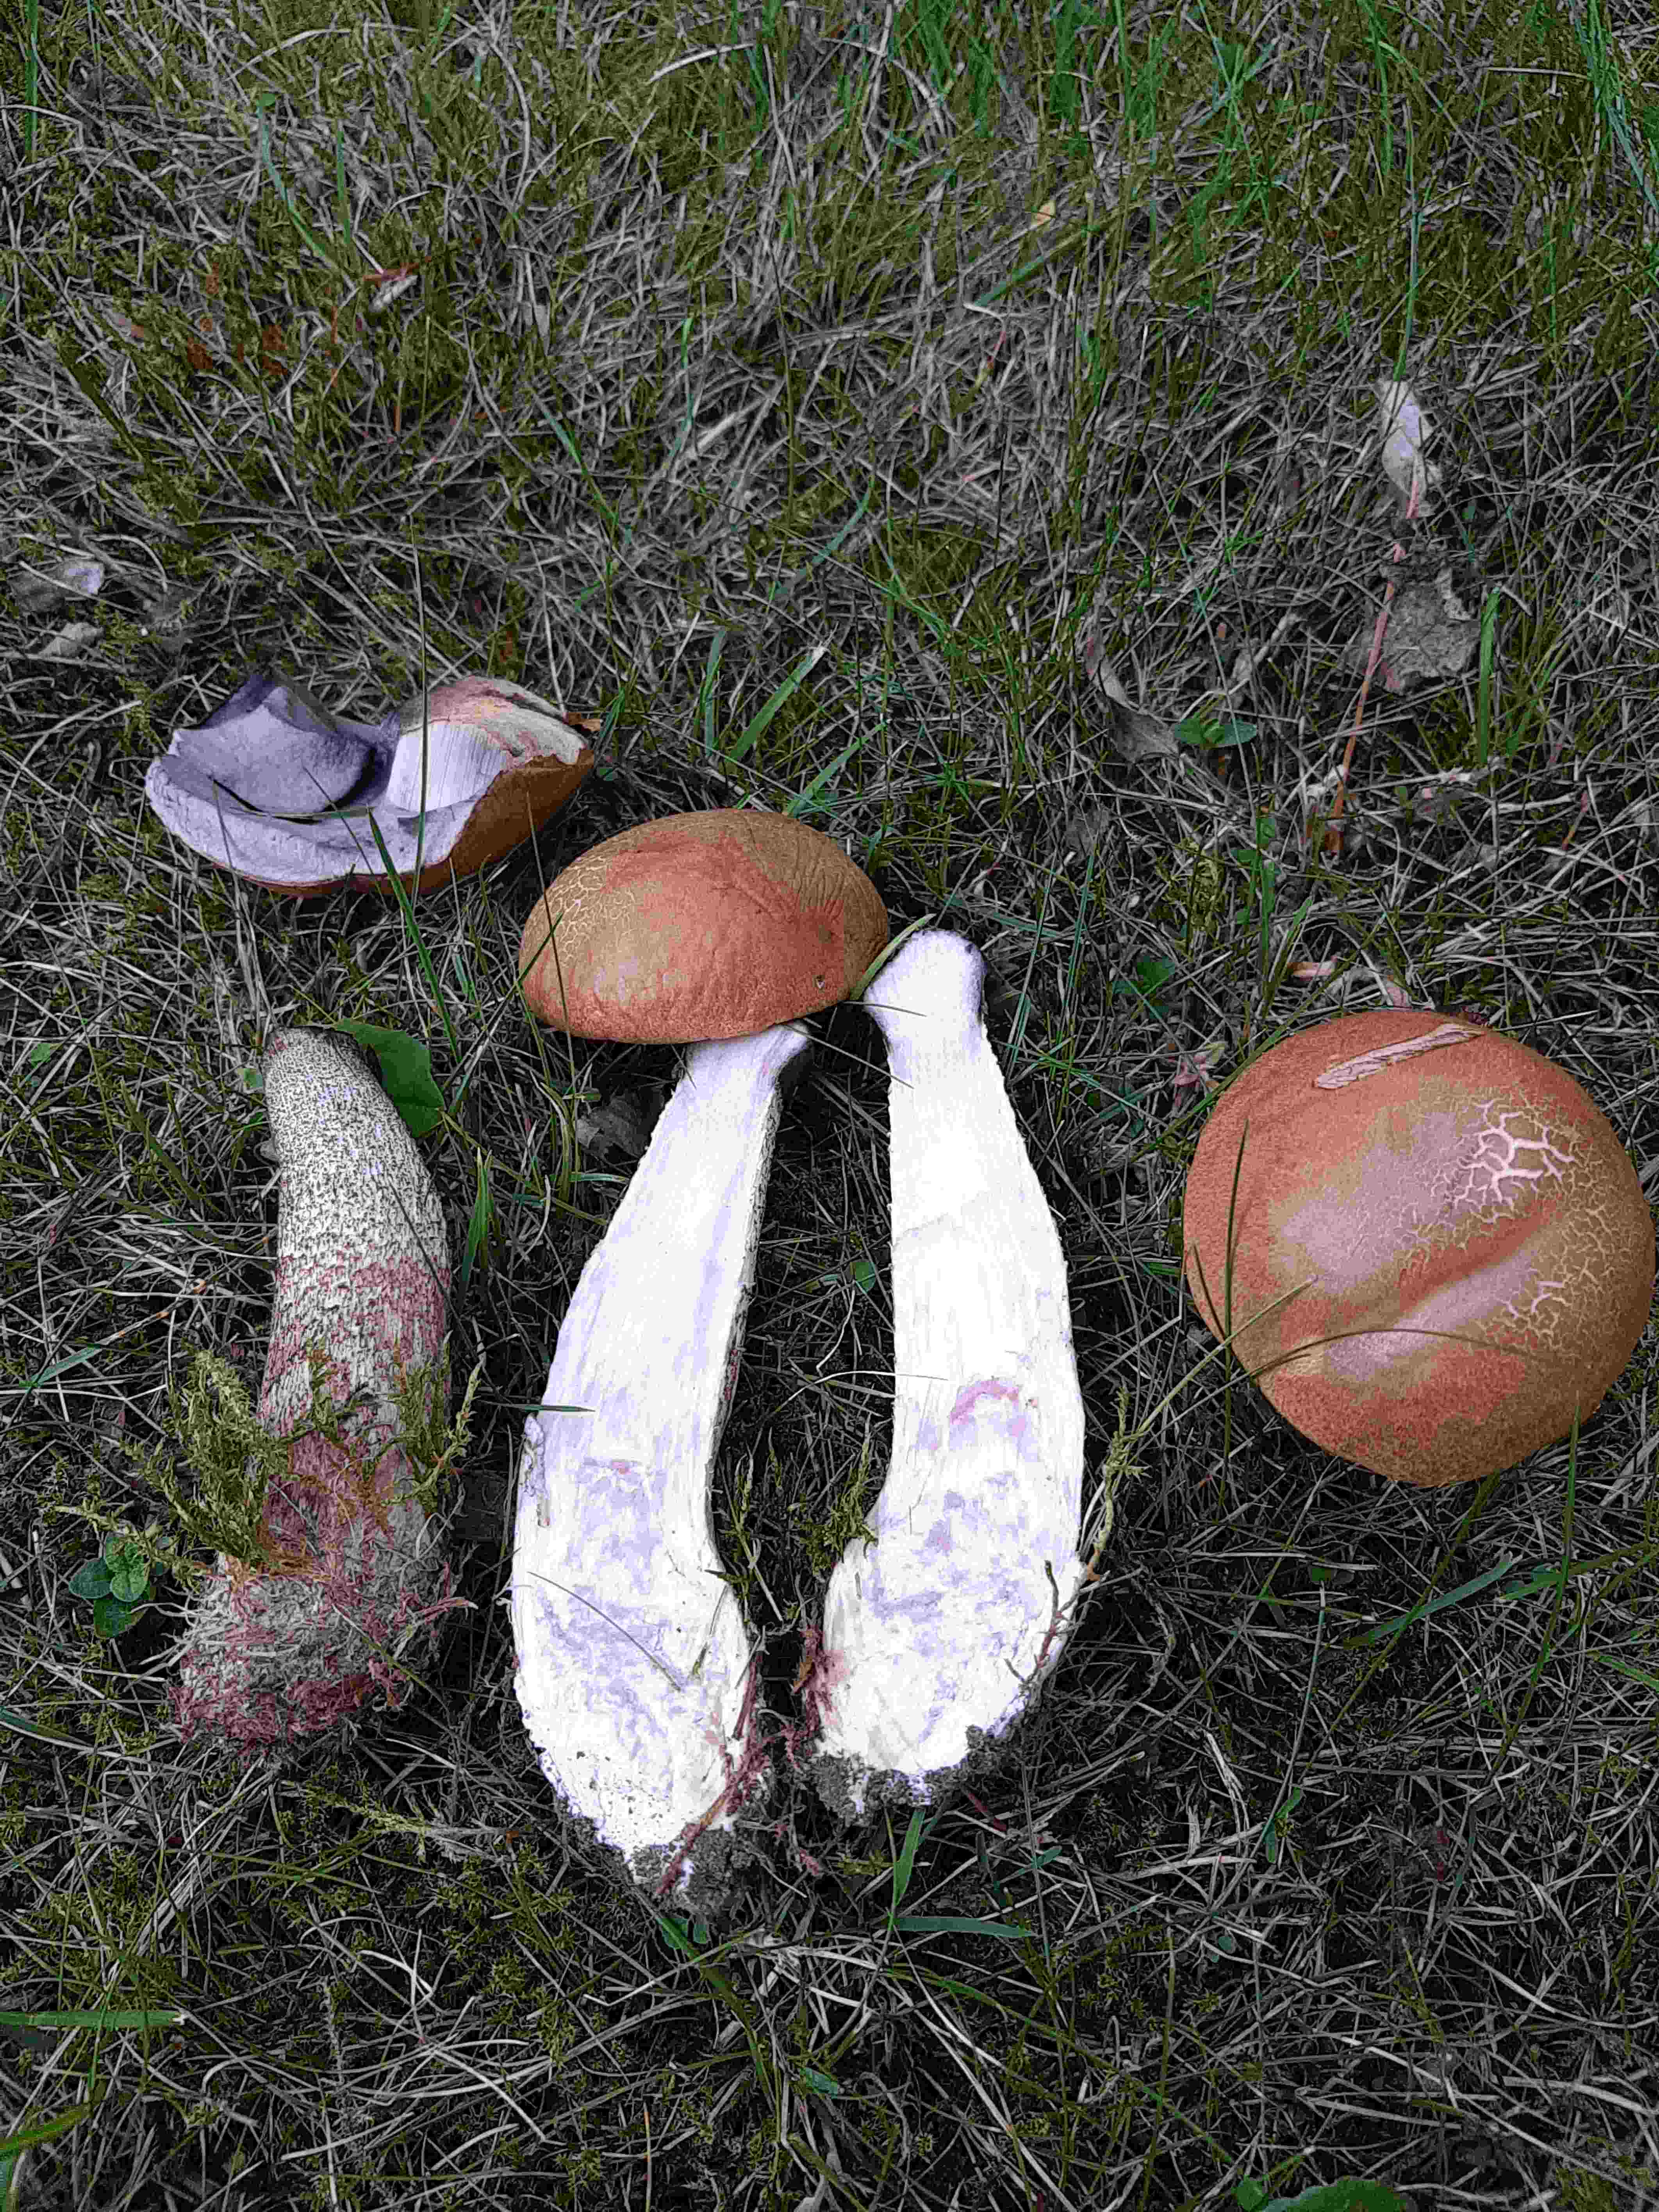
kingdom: Fungi
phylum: Basidiomycota
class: Agaricomycetes
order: Boletales
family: Boletaceae
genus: Leccinum
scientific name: Leccinum
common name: skælrørhat
